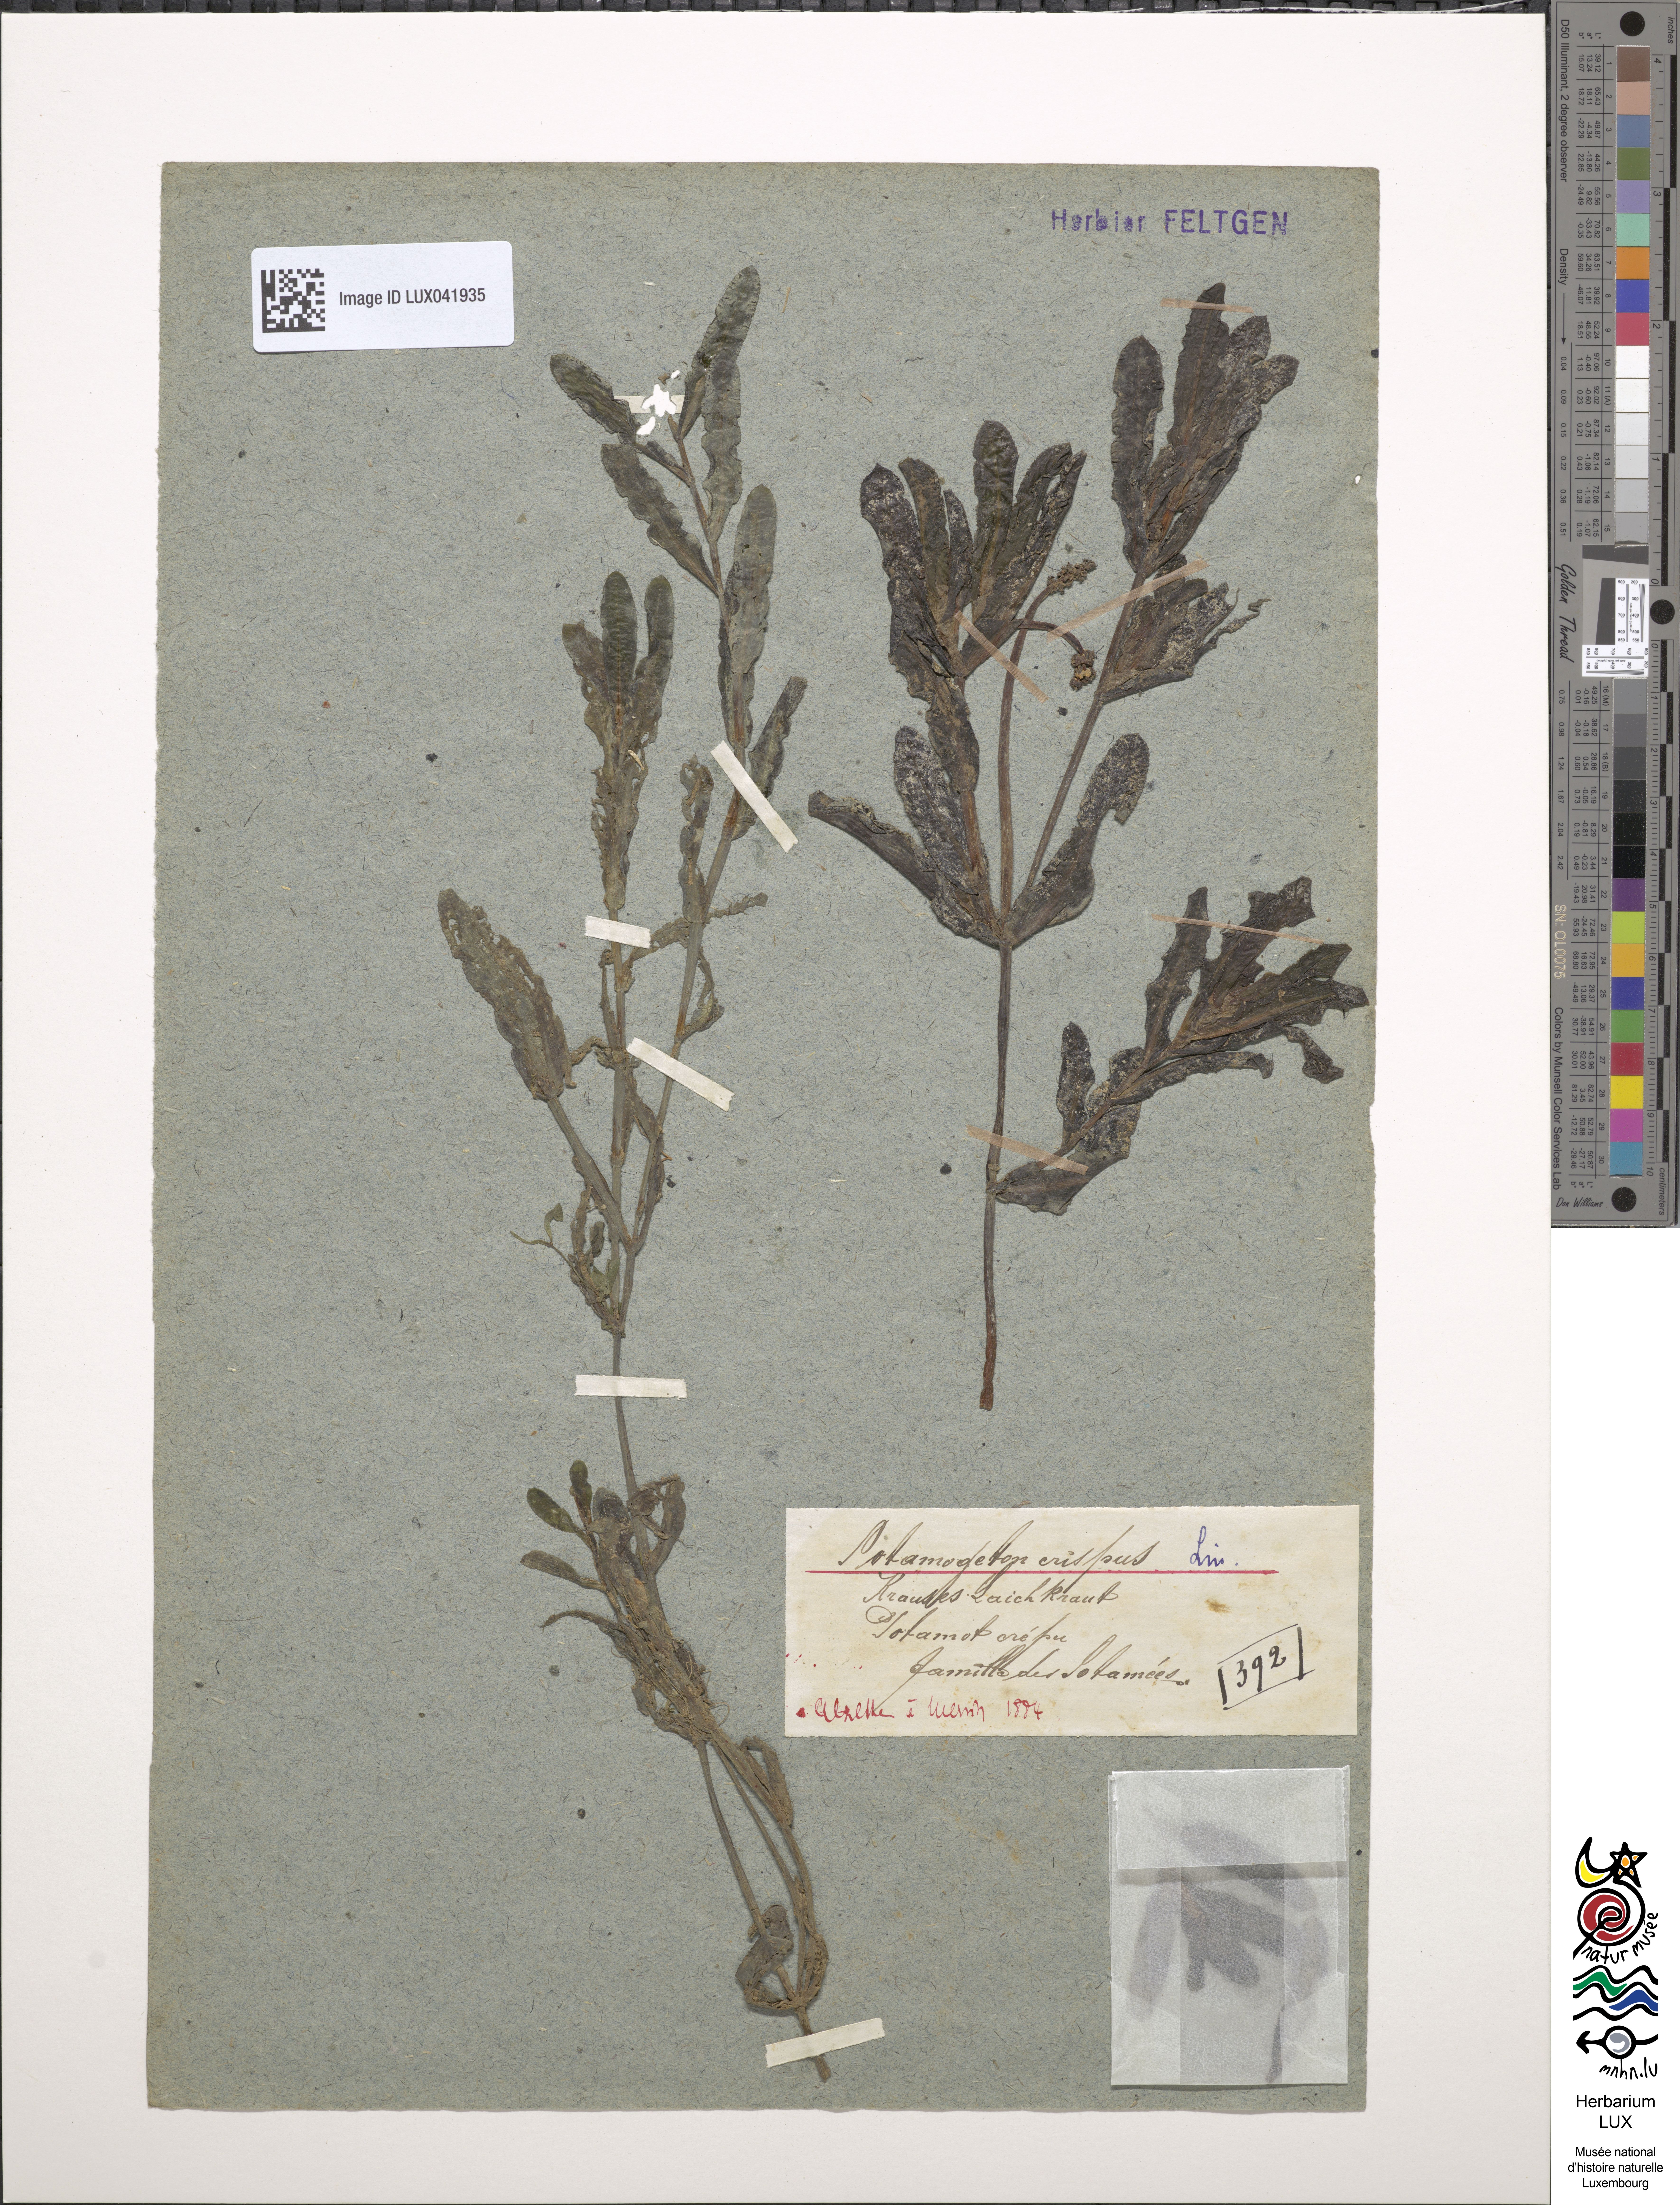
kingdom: Plantae
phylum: Tracheophyta
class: Liliopsida
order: Alismatales
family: Potamogetonaceae
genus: Potamogeton
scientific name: Potamogeton crispus
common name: Curled pondweed
